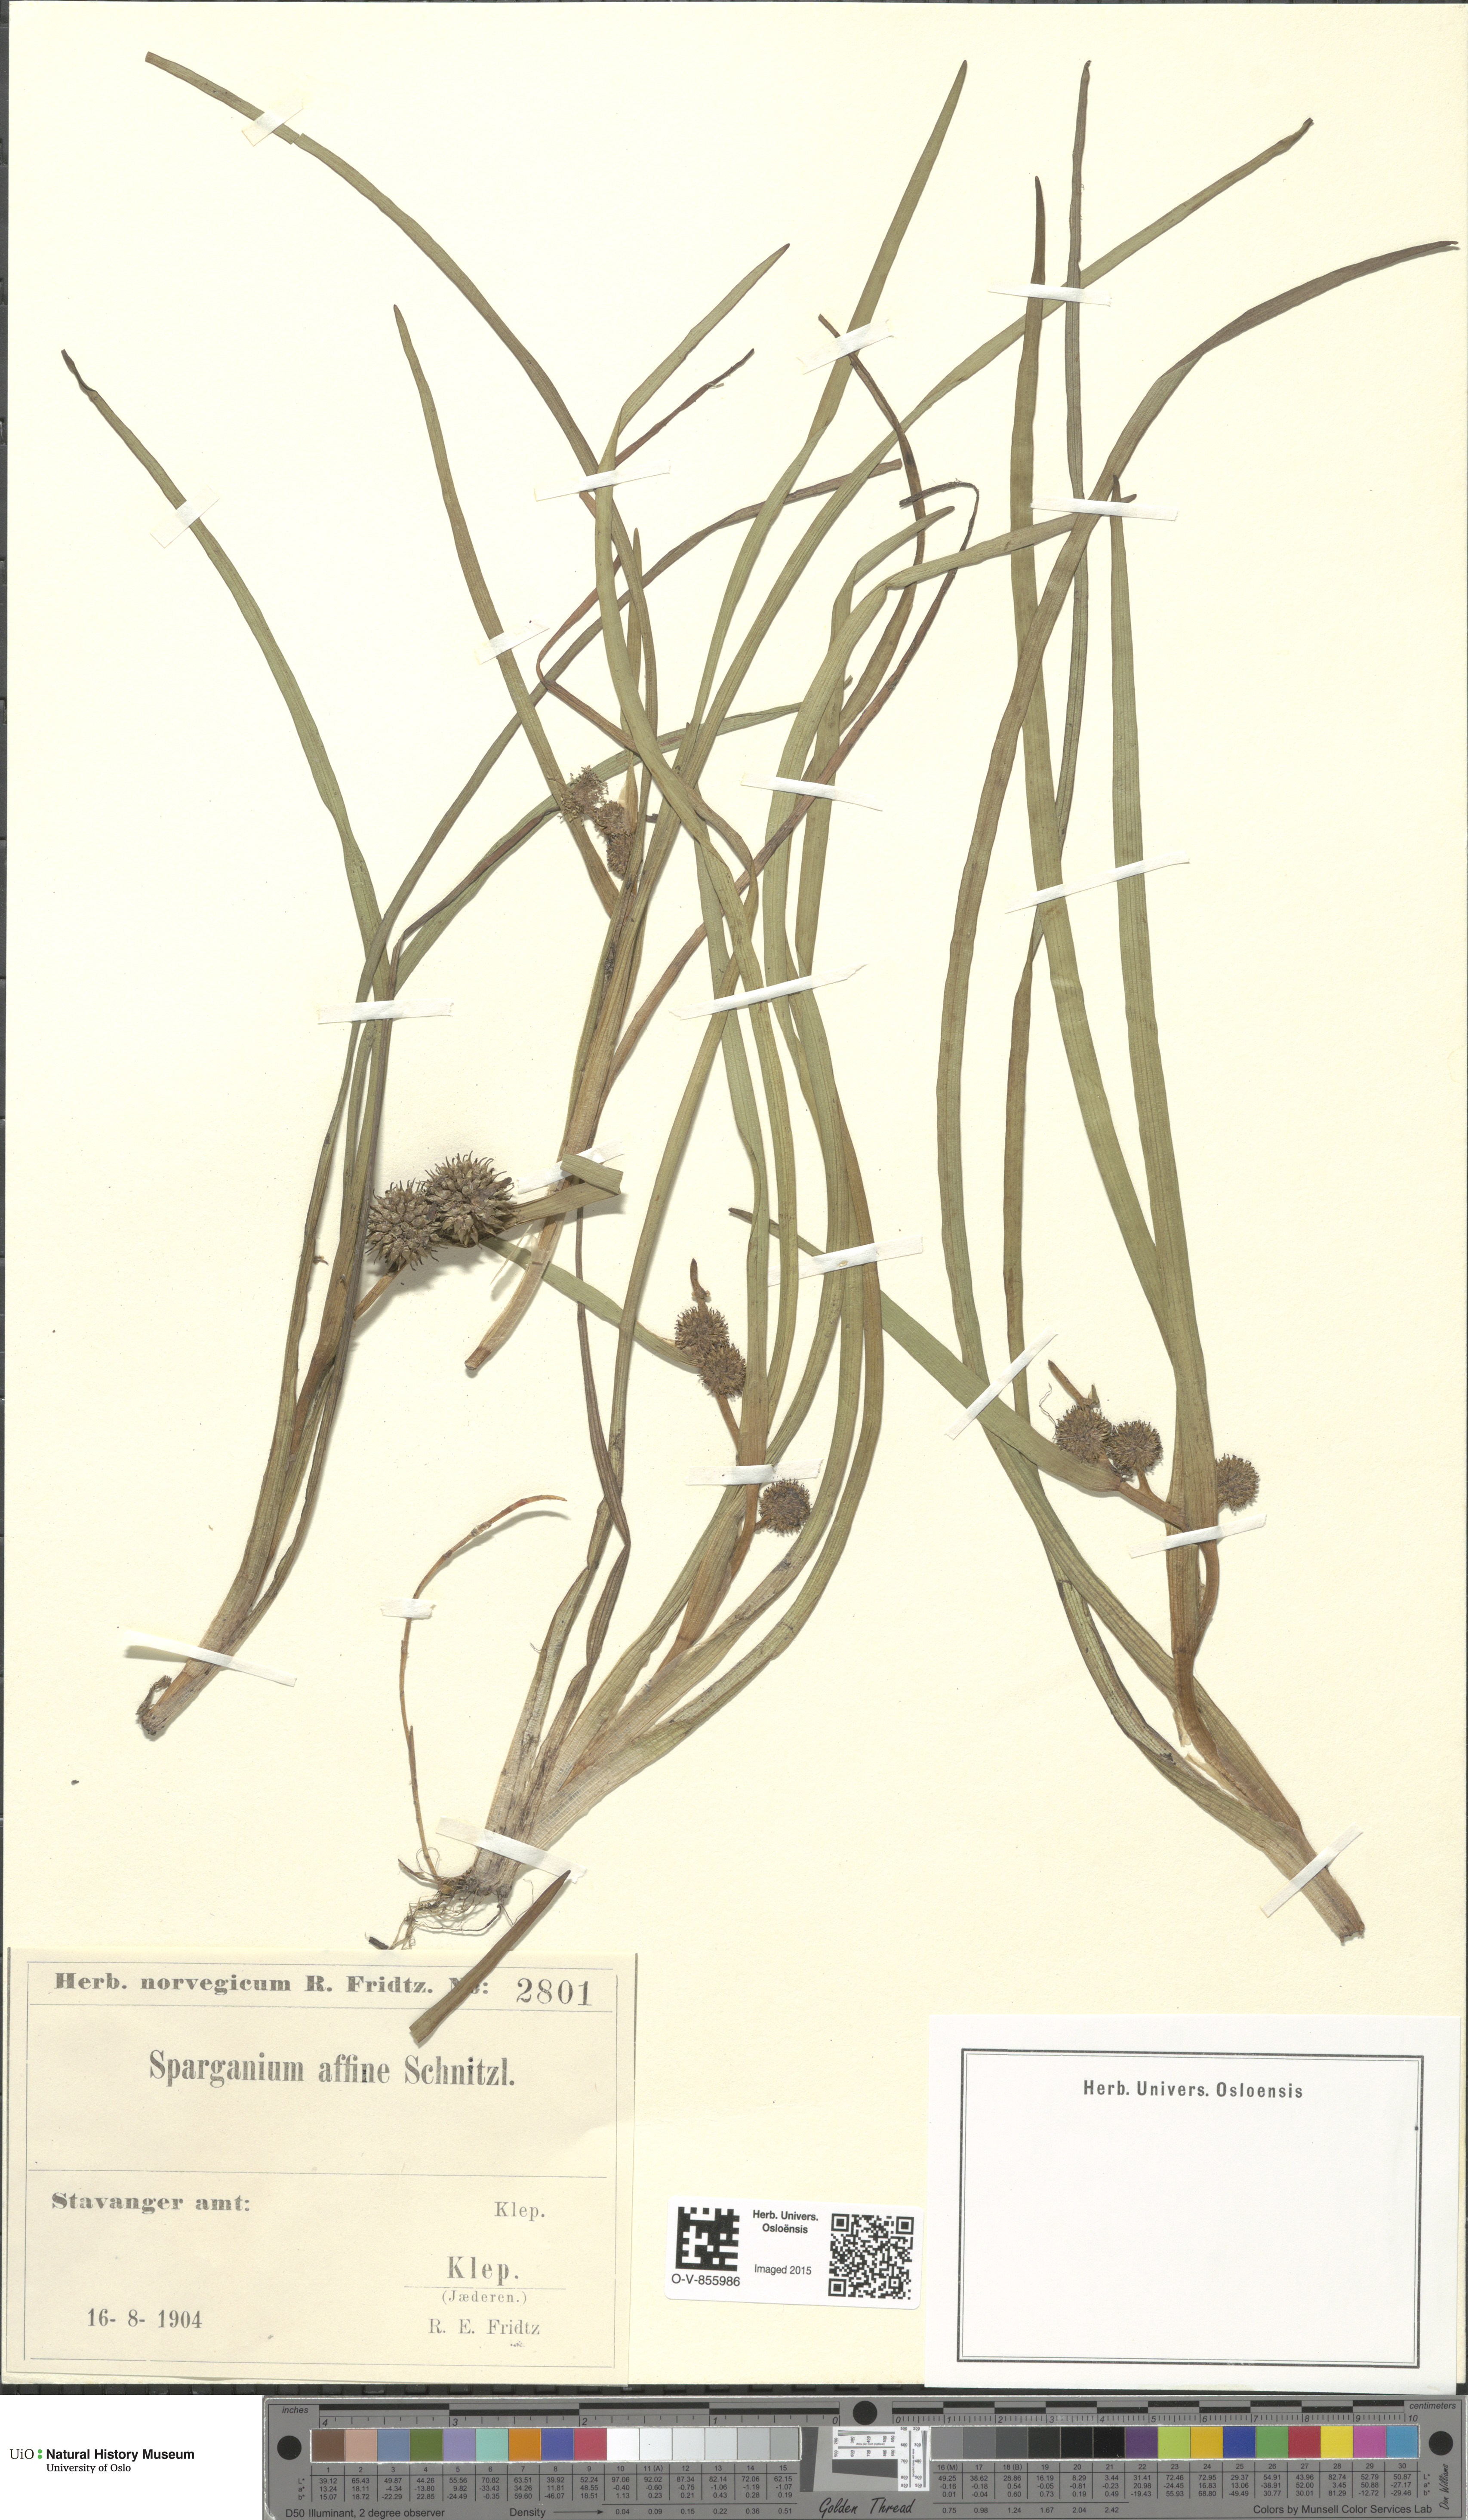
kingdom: Plantae
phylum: Tracheophyta
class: Liliopsida
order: Poales
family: Typhaceae
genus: Sparganium
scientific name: Sparganium angustifolium
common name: Floating bur-reed
